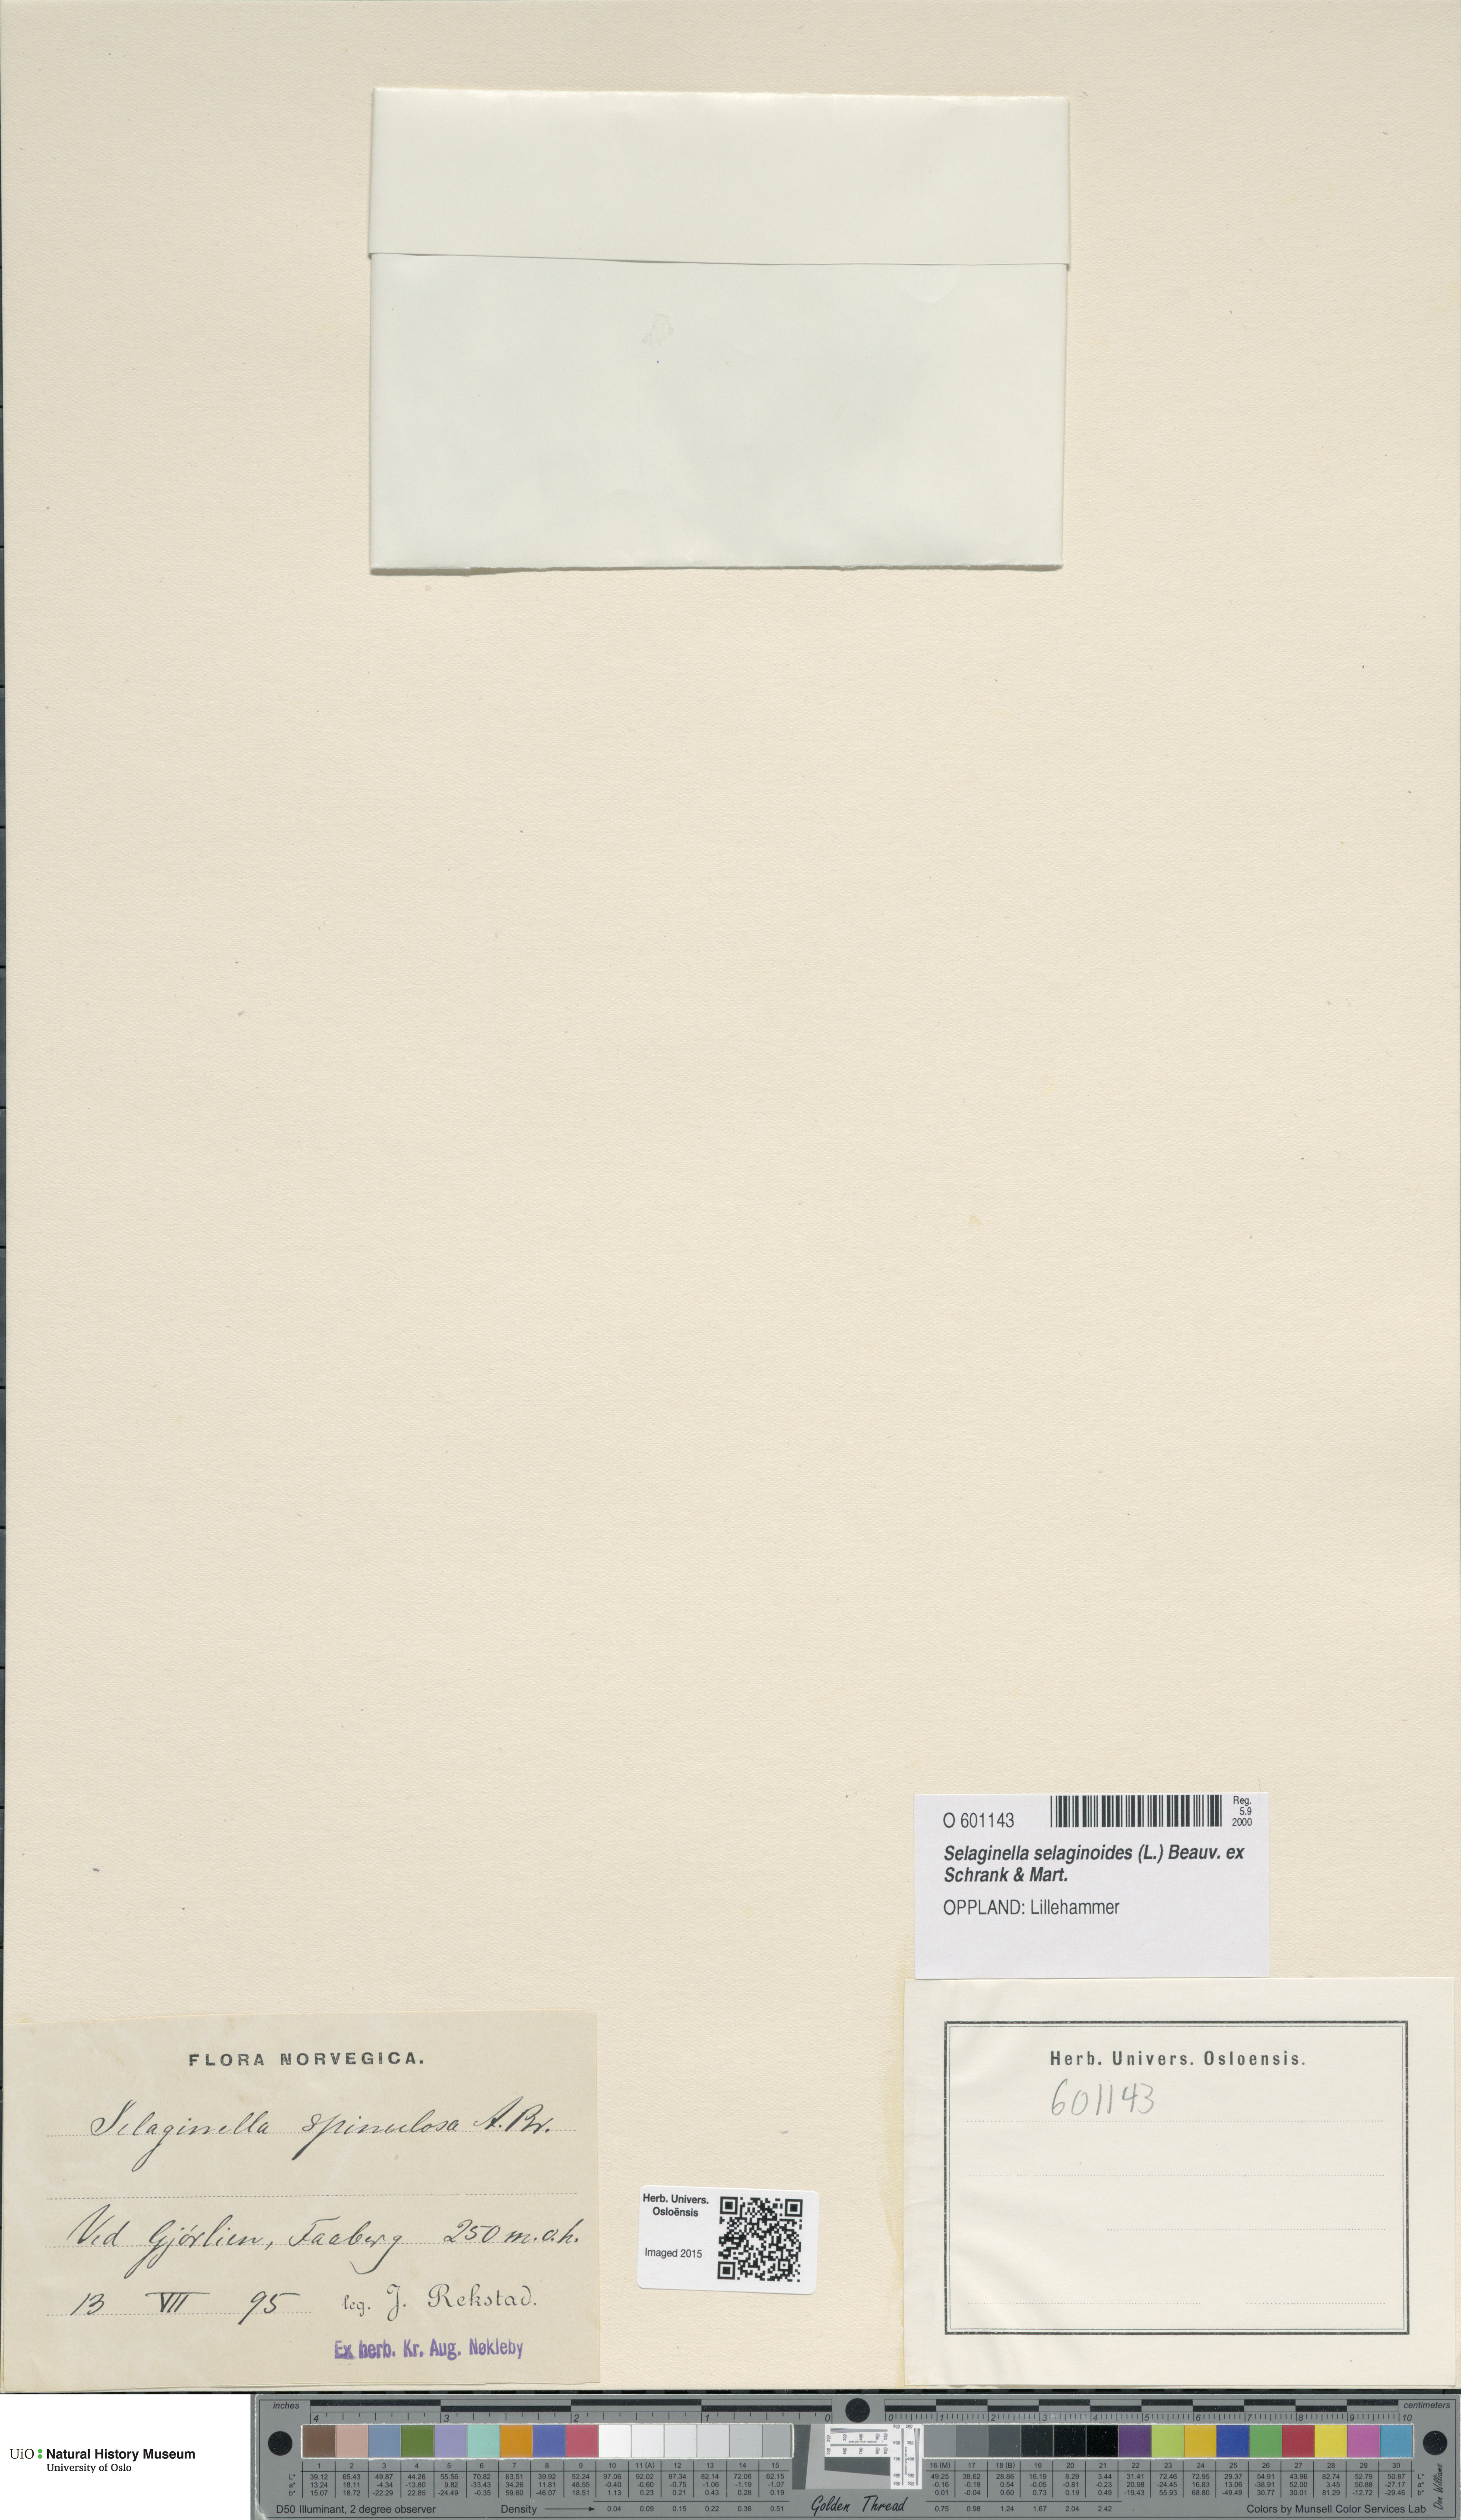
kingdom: Plantae
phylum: Tracheophyta
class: Lycopodiopsida
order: Selaginellales
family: Selaginellaceae
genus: Selaginella
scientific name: Selaginella selaginoides
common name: Prickly mountain-moss
